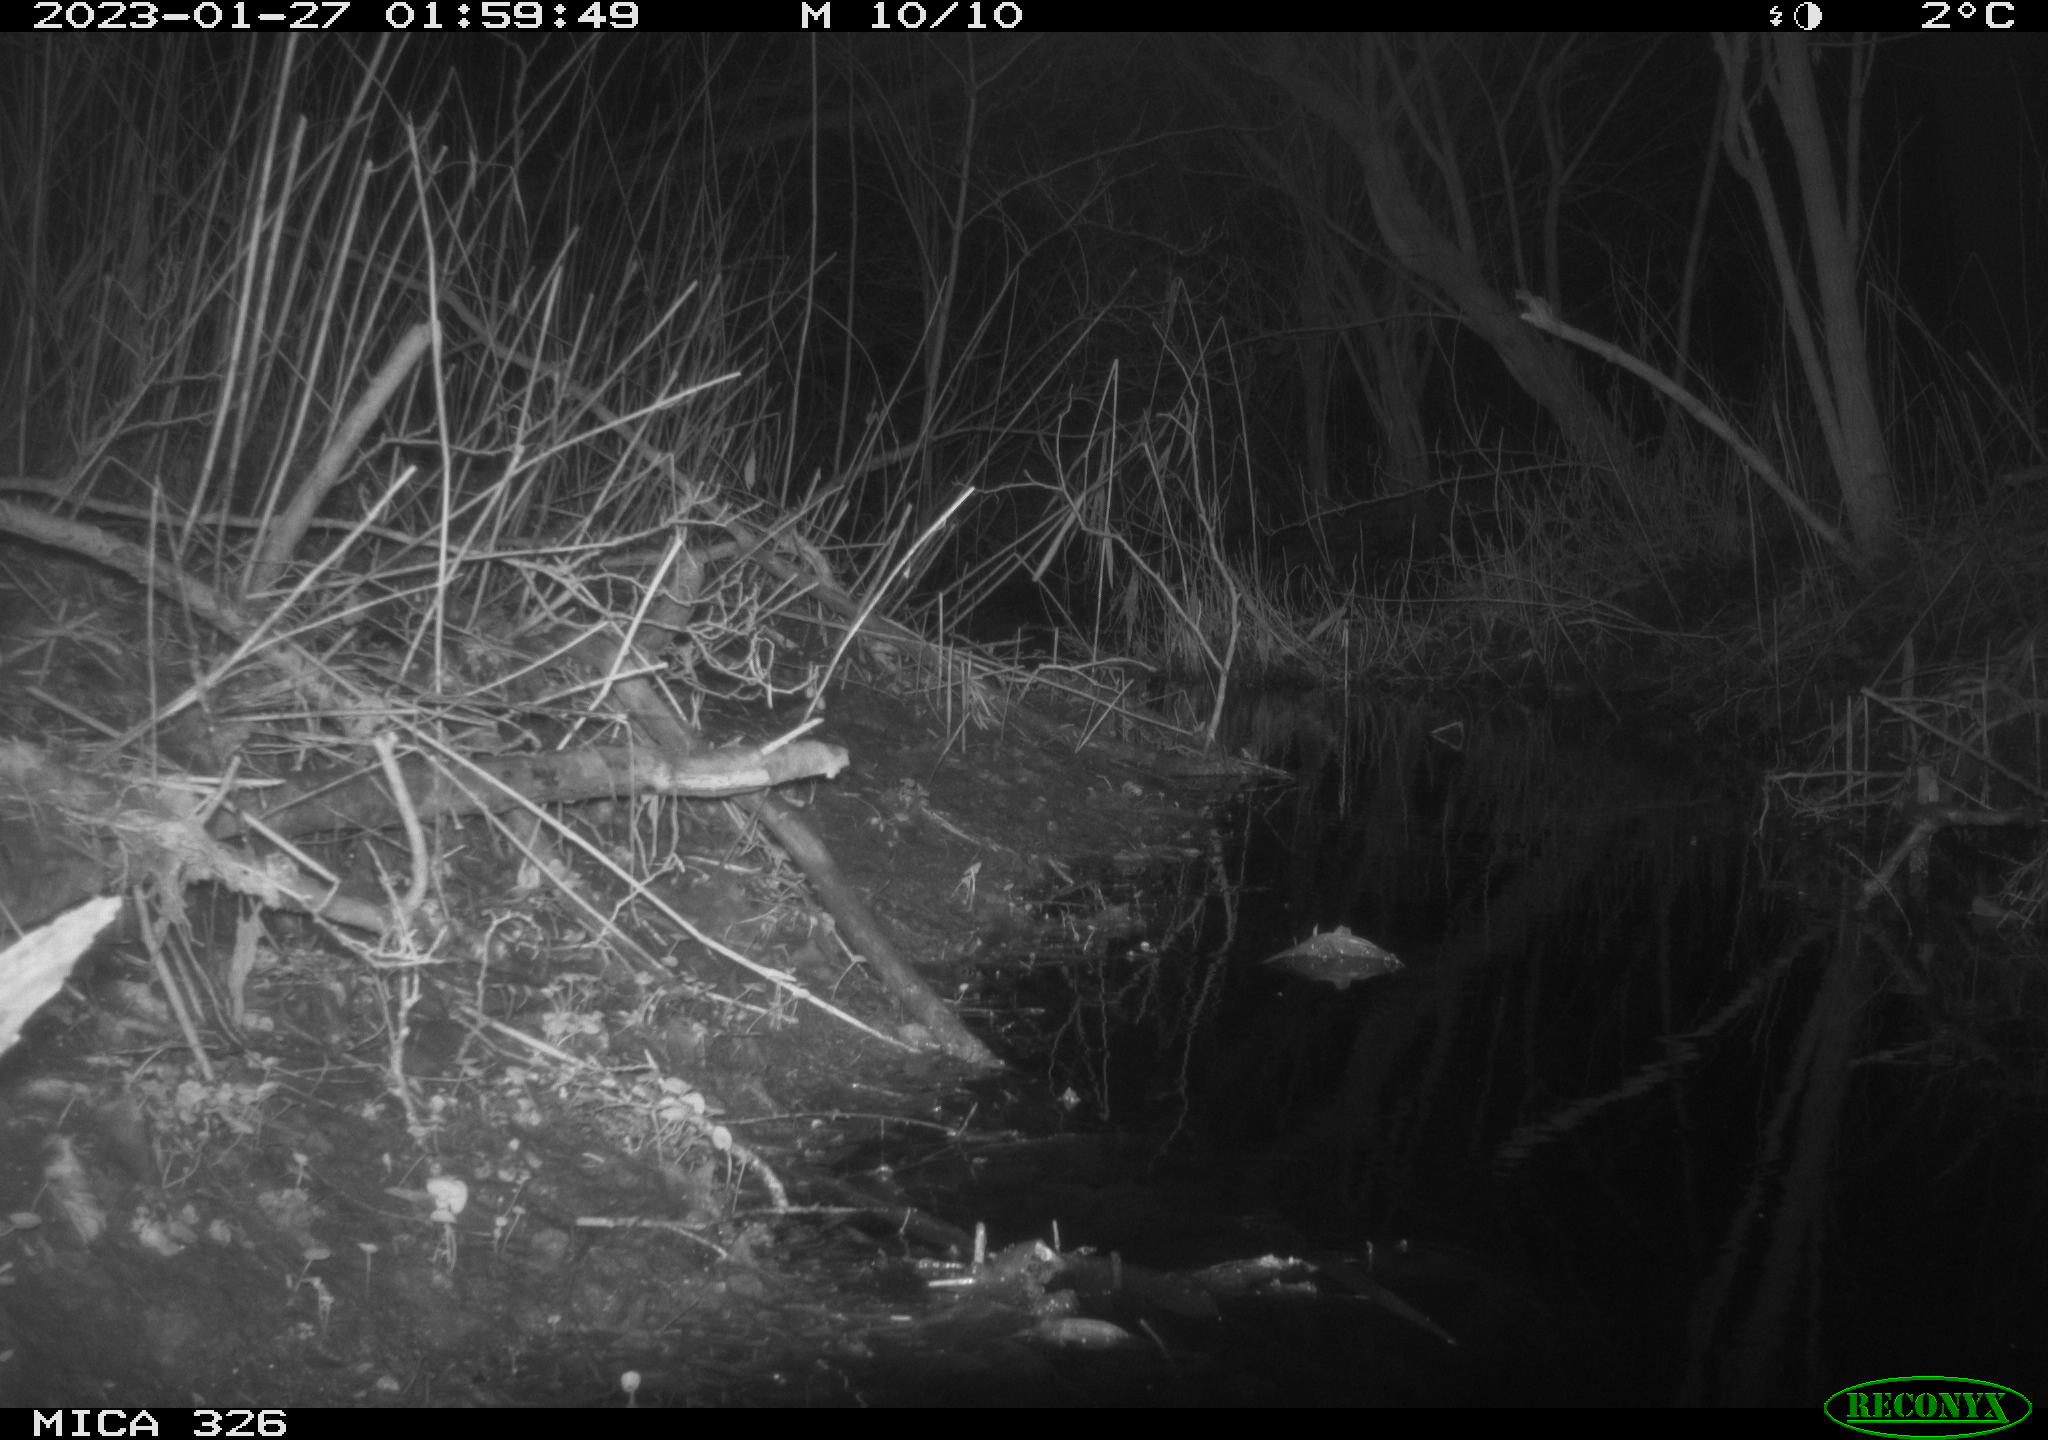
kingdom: Animalia
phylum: Chordata
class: Mammalia
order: Rodentia
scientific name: Rodentia
